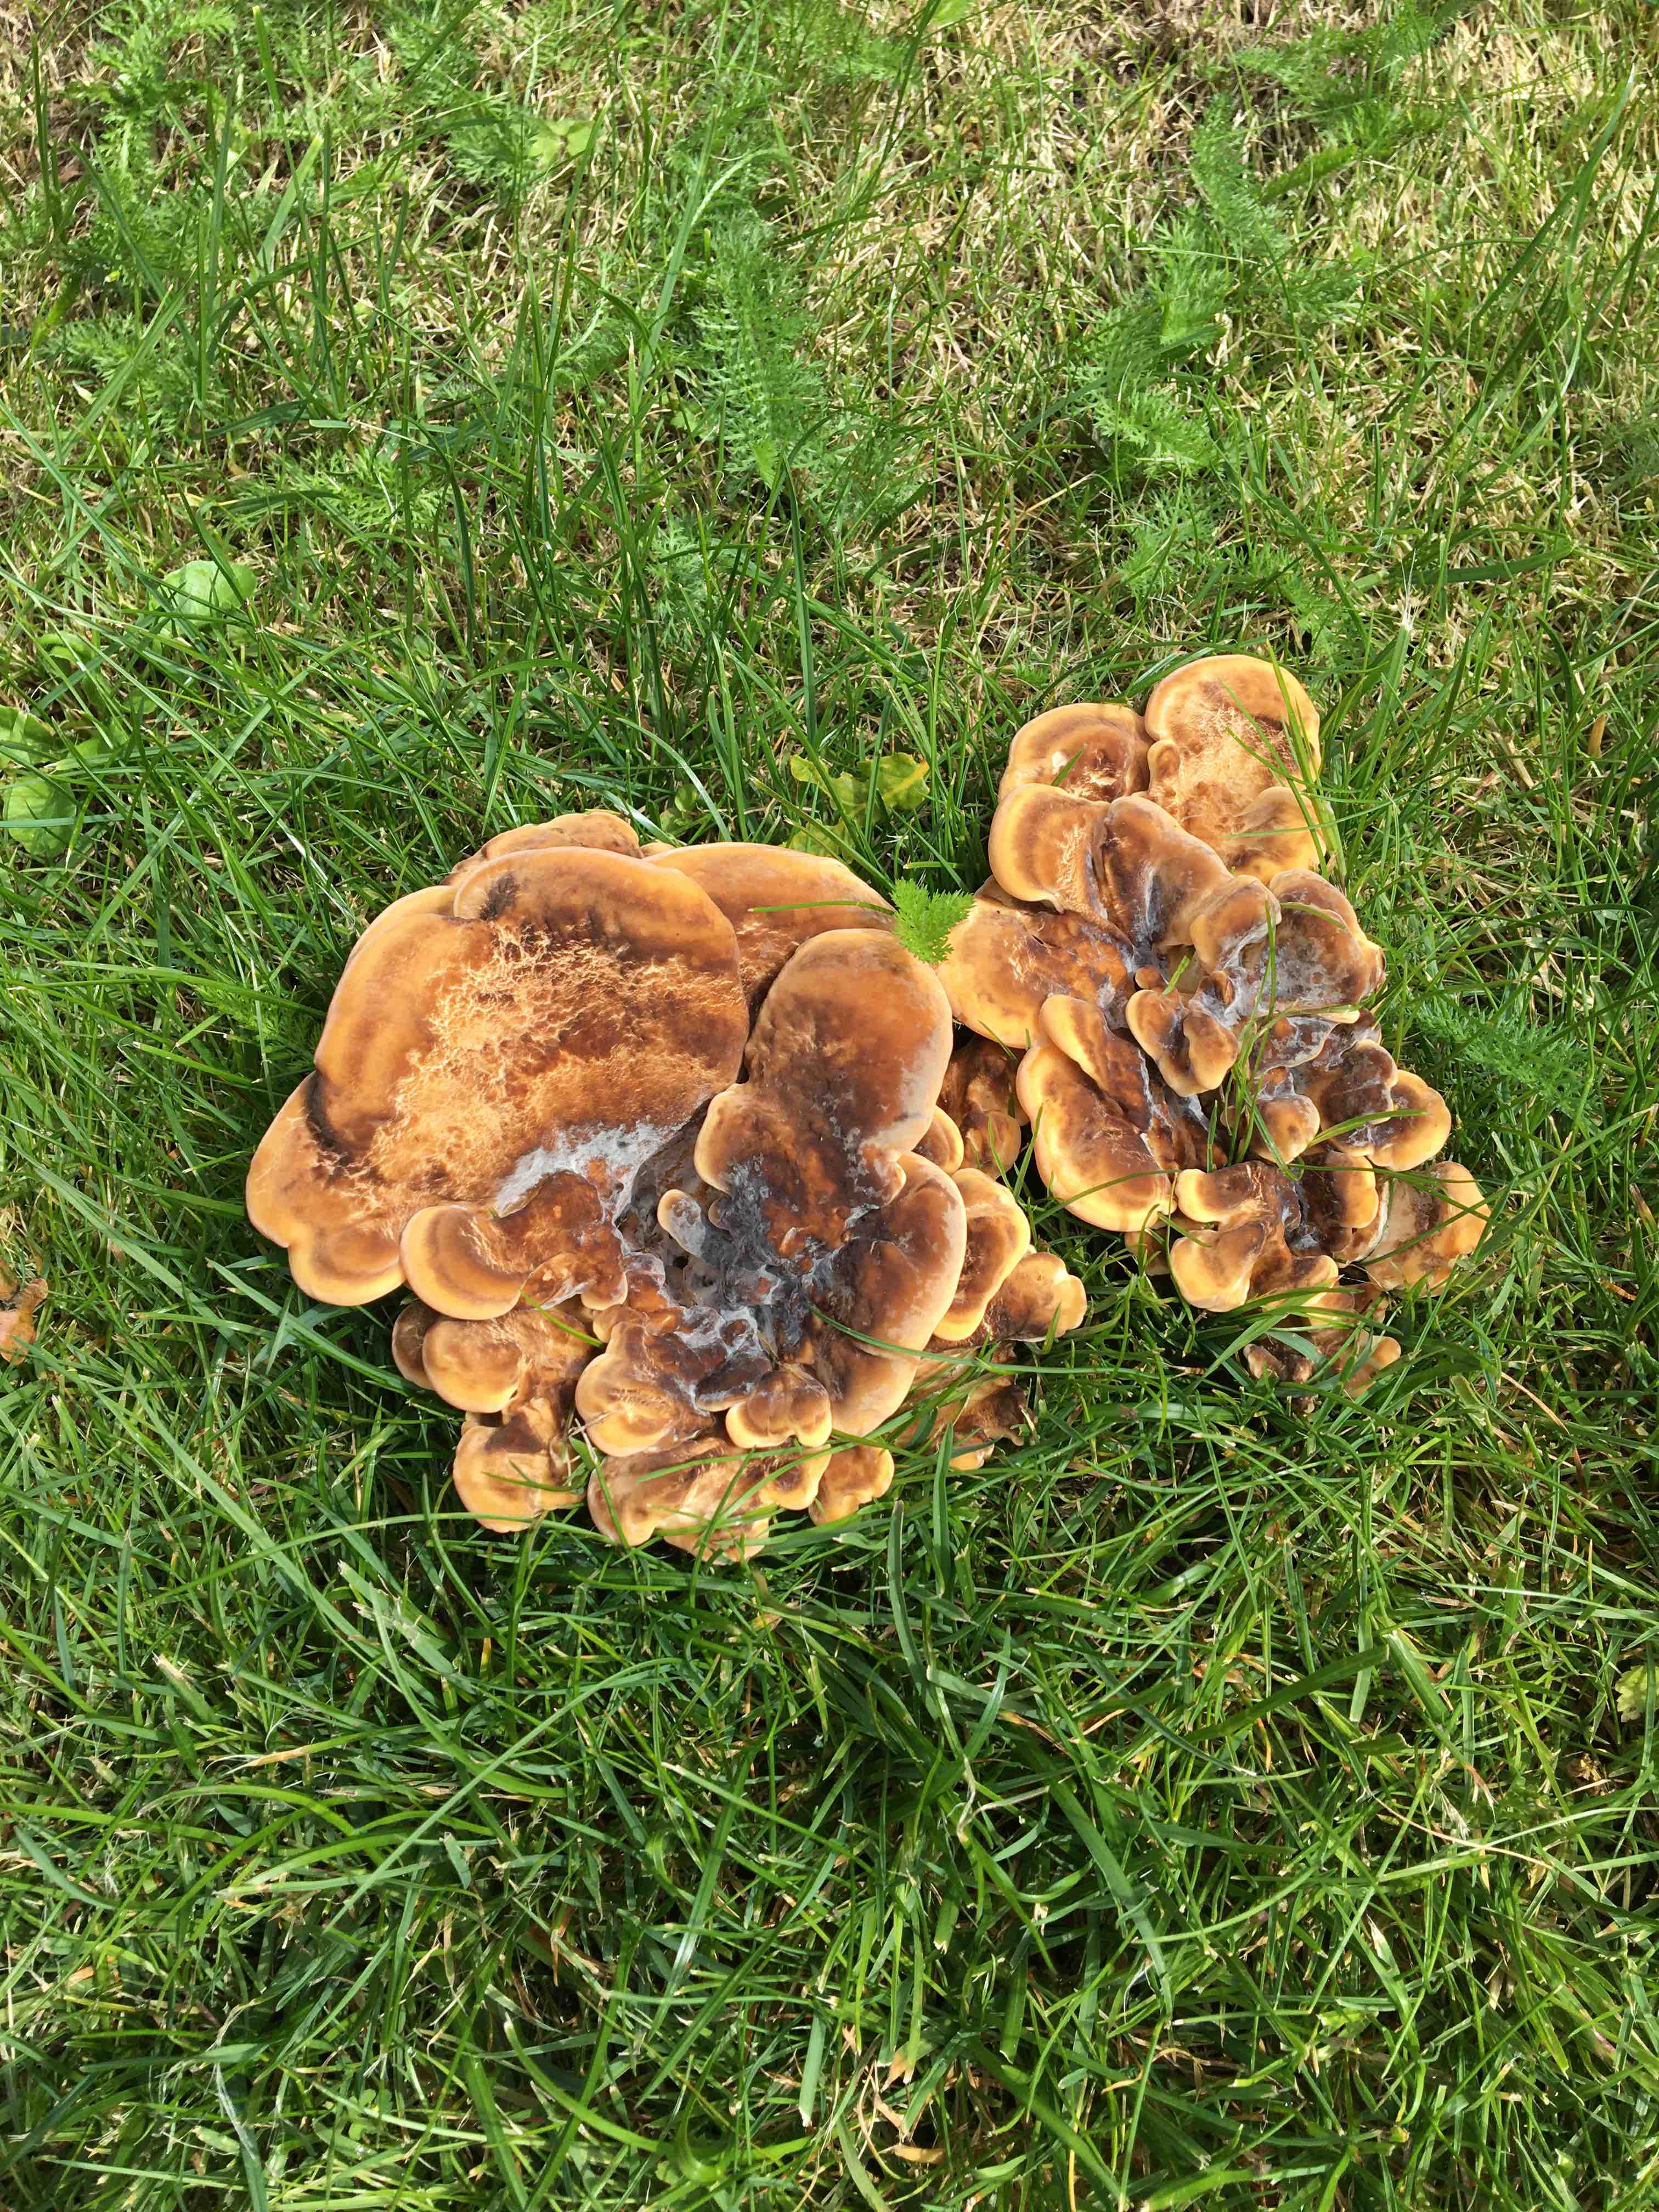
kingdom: Fungi
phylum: Basidiomycota
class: Agaricomycetes
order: Polyporales
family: Meripilaceae
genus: Meripilus
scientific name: Meripilus giganteus
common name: kæmpeporesvamp
